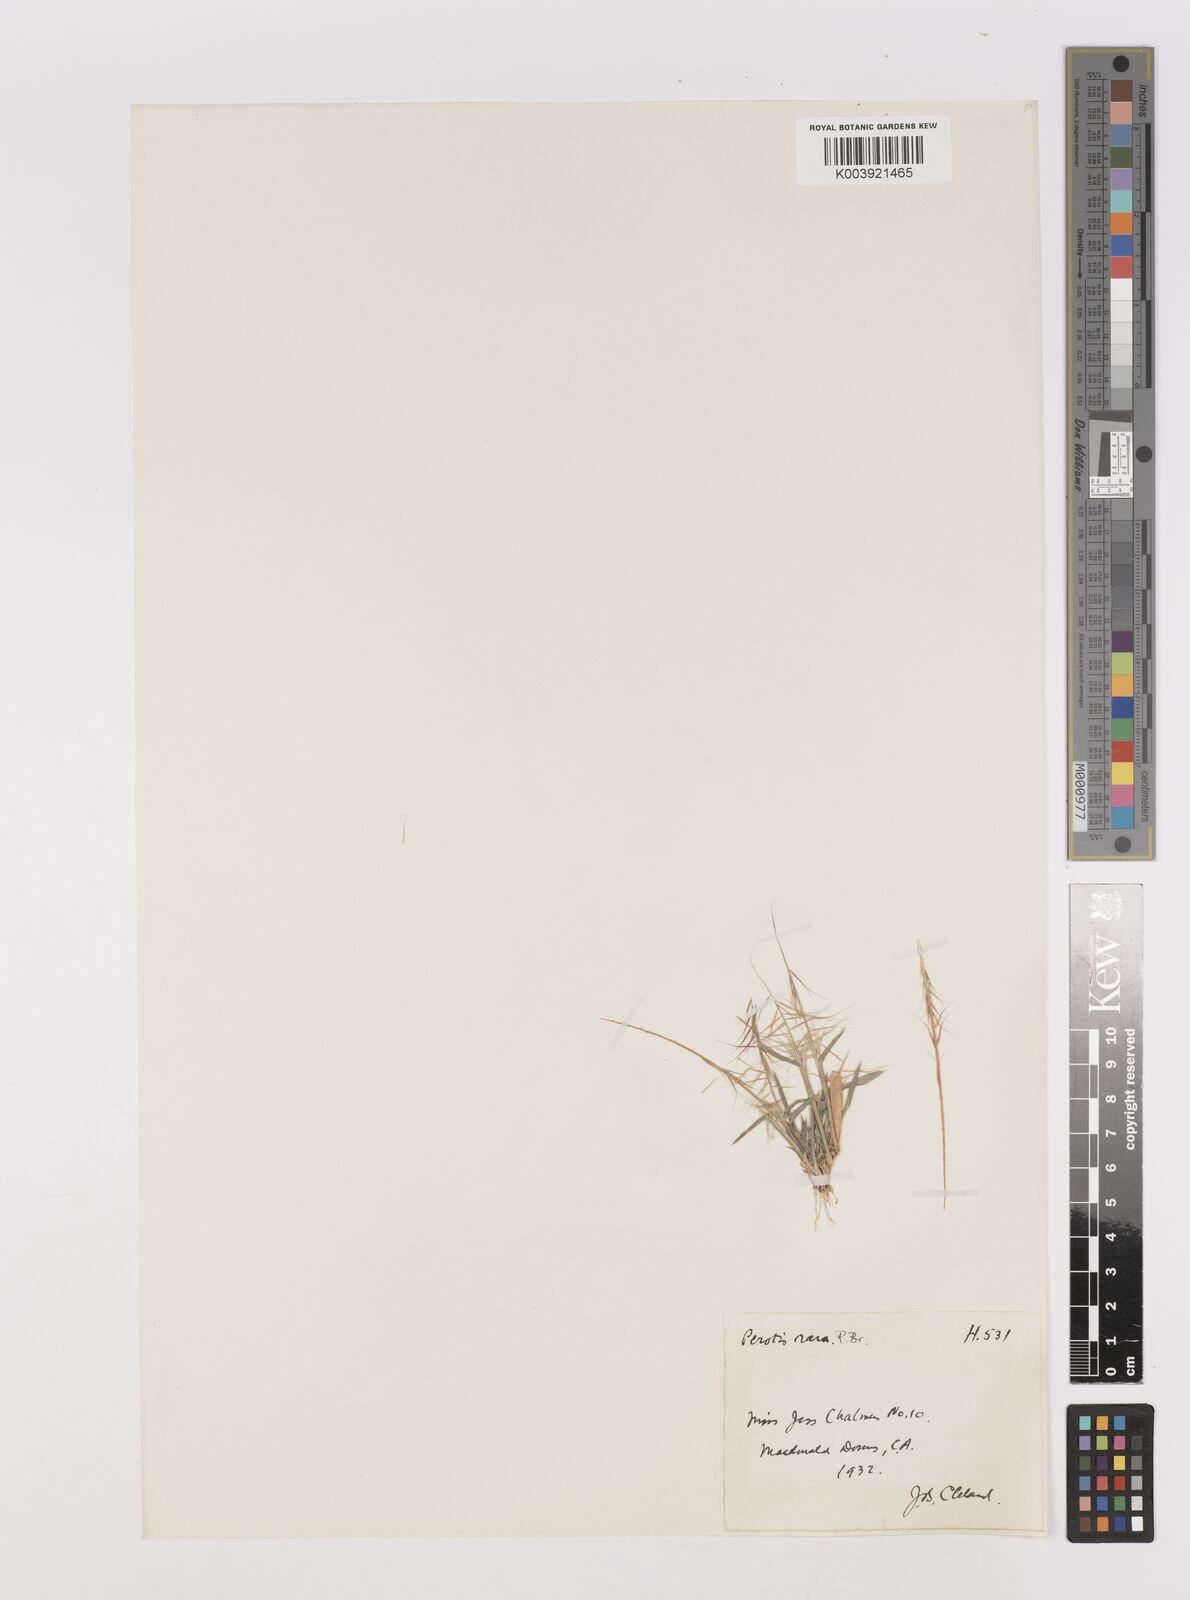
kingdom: Plantae
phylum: Tracheophyta
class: Liliopsida
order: Poales
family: Poaceae
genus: Perotis
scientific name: Perotis rara
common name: Comet grass
